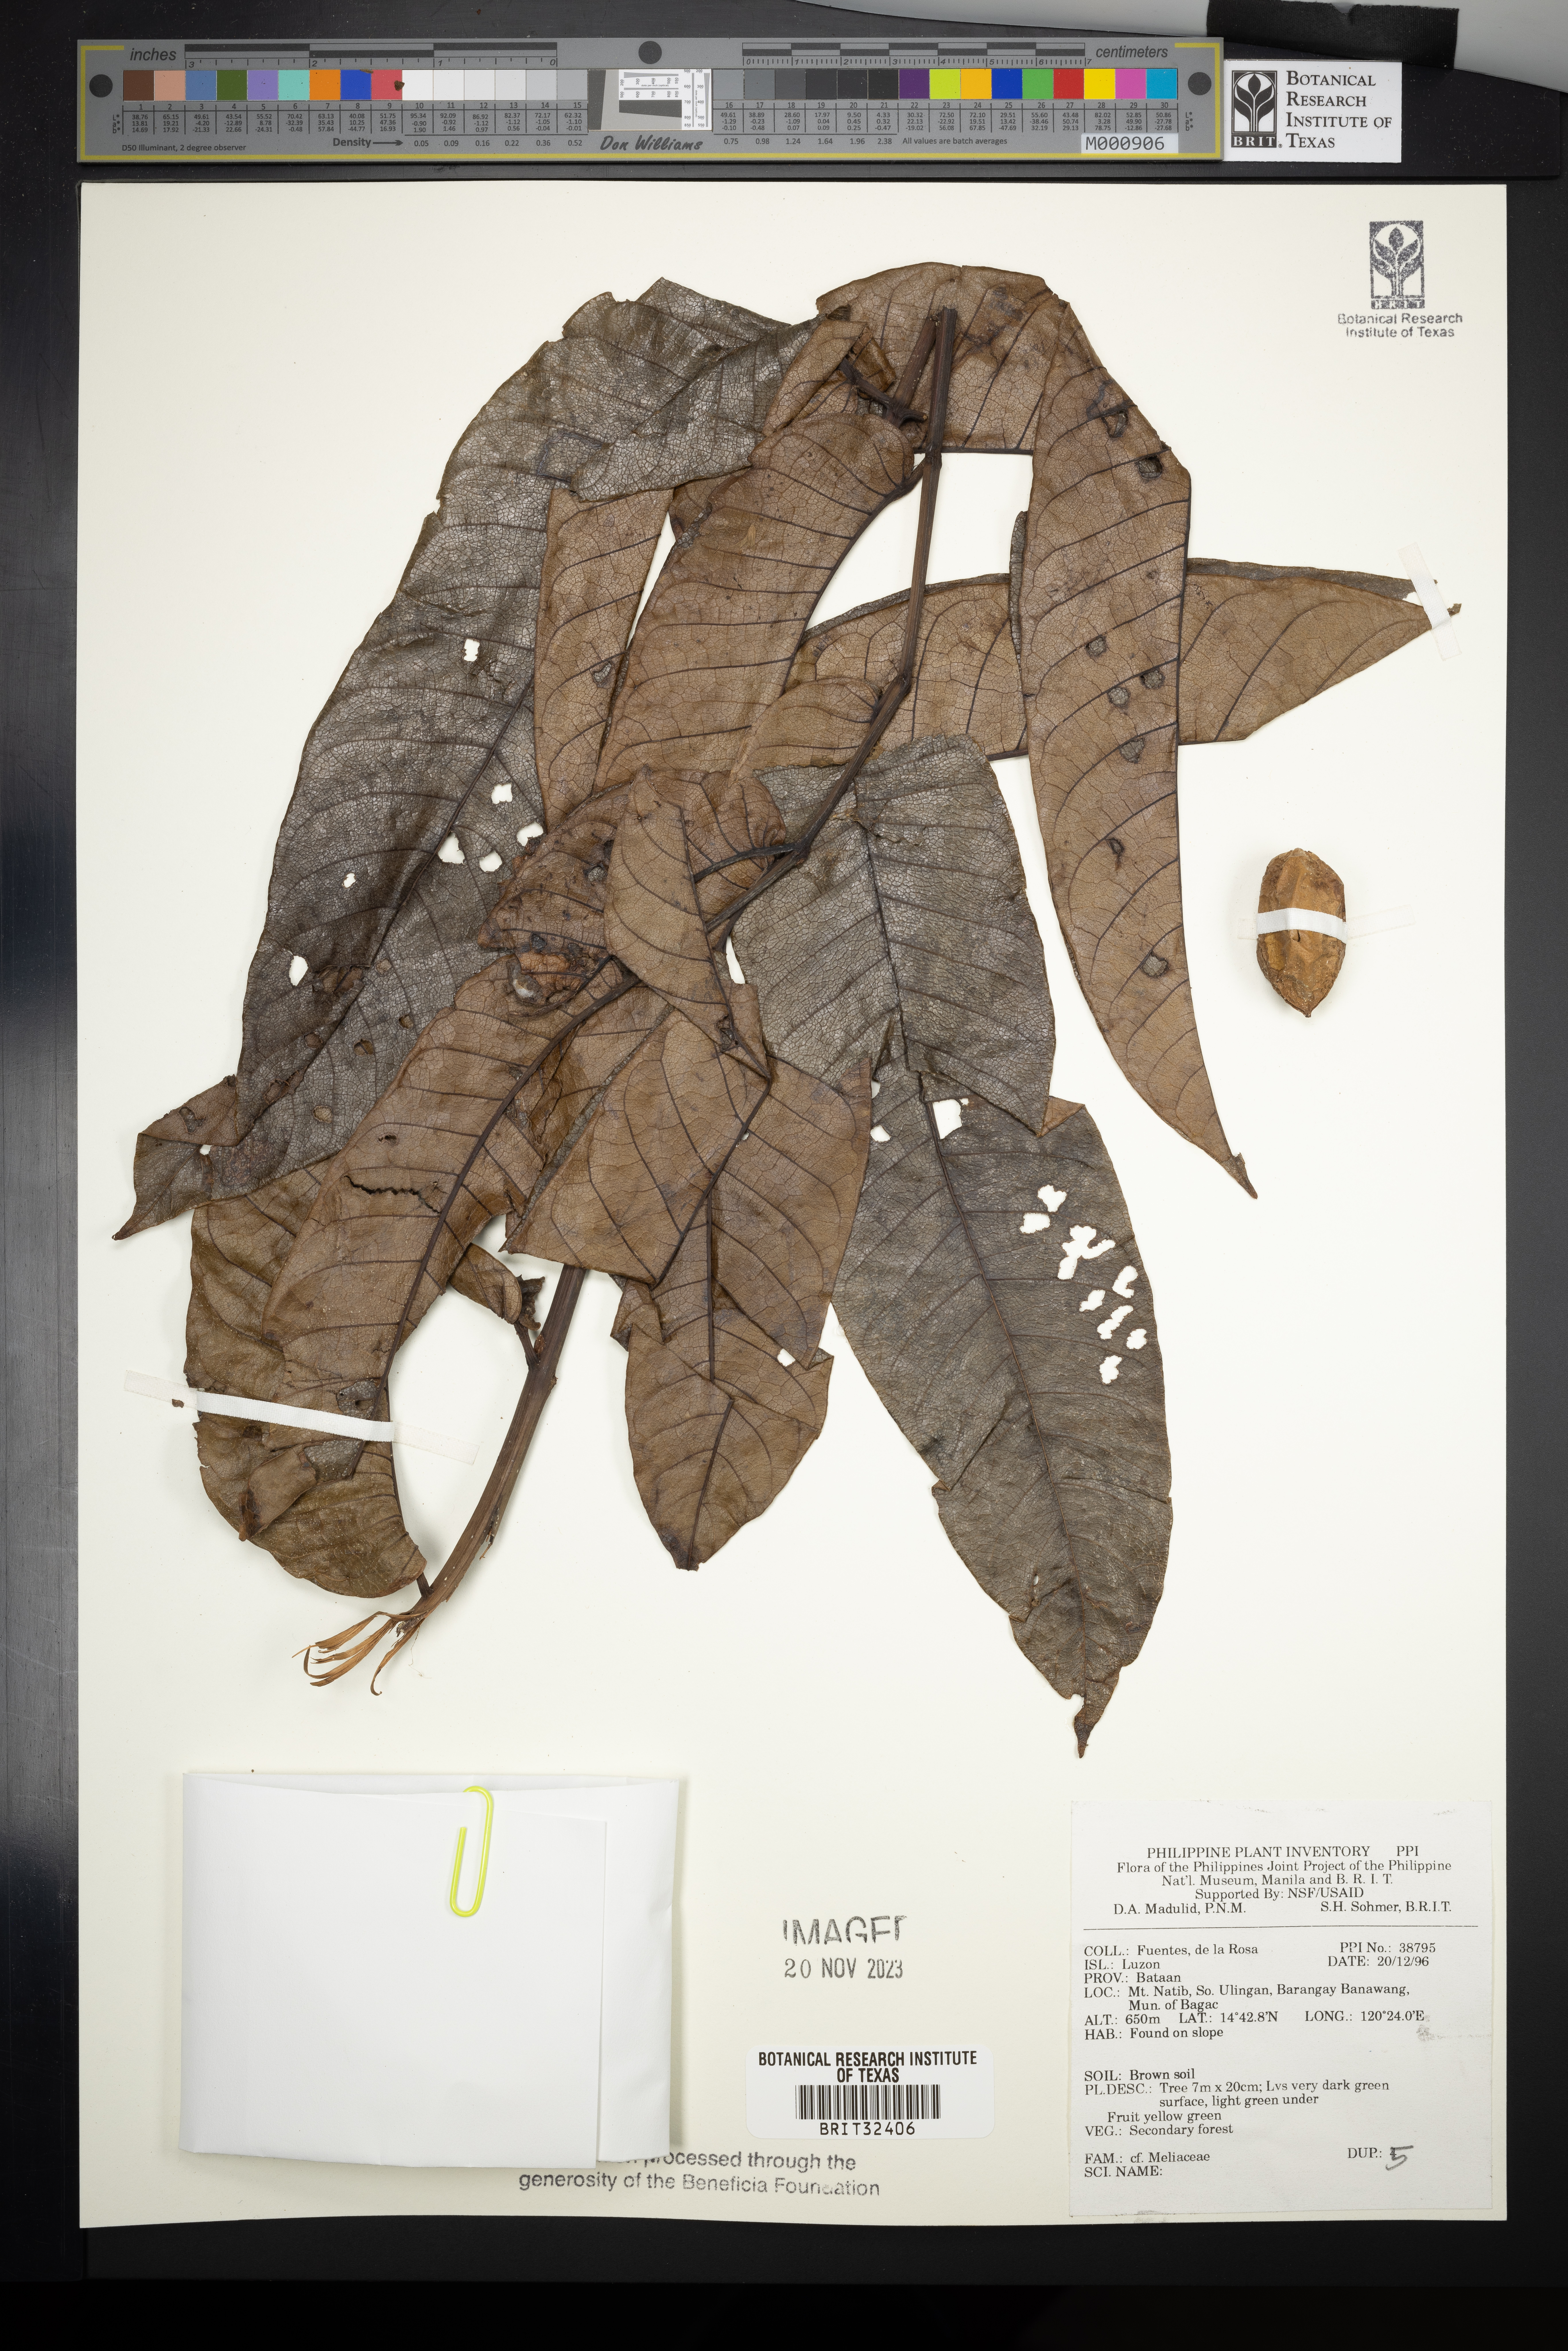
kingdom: Plantae
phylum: Tracheophyta
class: Magnoliopsida
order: Sapindales
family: Meliaceae
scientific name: Meliaceae
